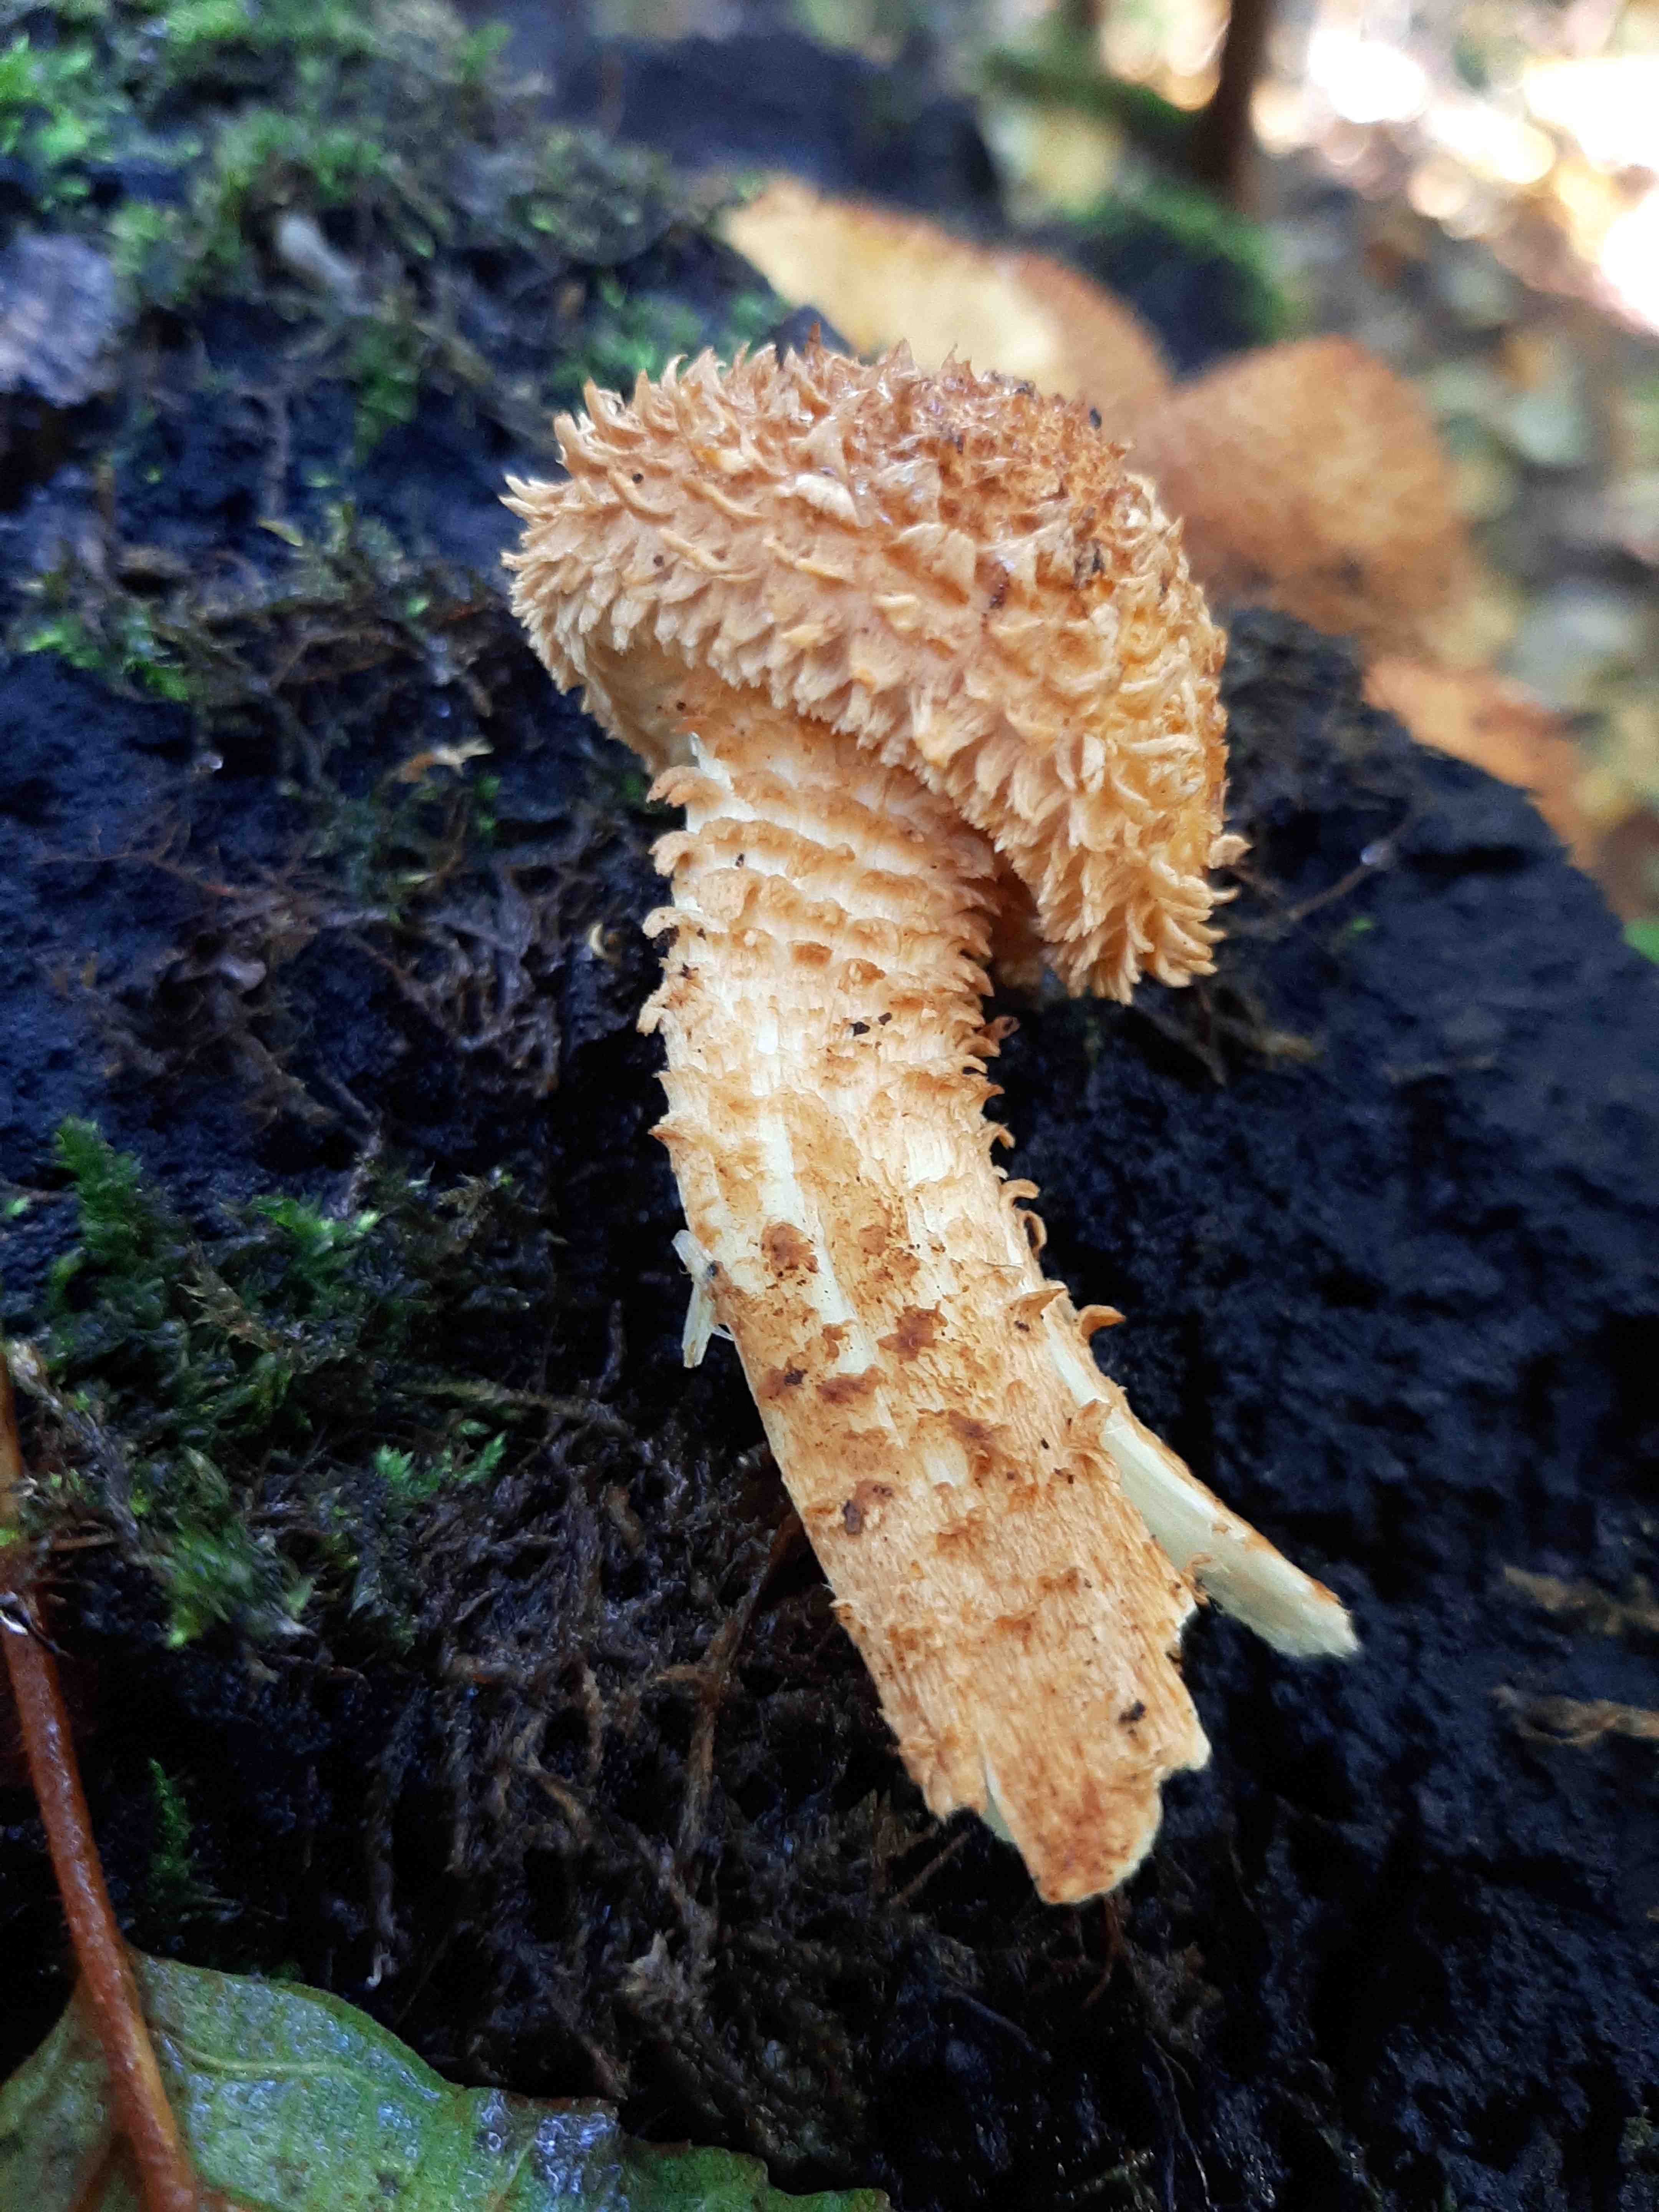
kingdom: Fungi
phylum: Basidiomycota
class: Agaricomycetes
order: Agaricales
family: Strophariaceae
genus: Pholiota
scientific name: Pholiota squarrosa
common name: krumskællet skælhat
